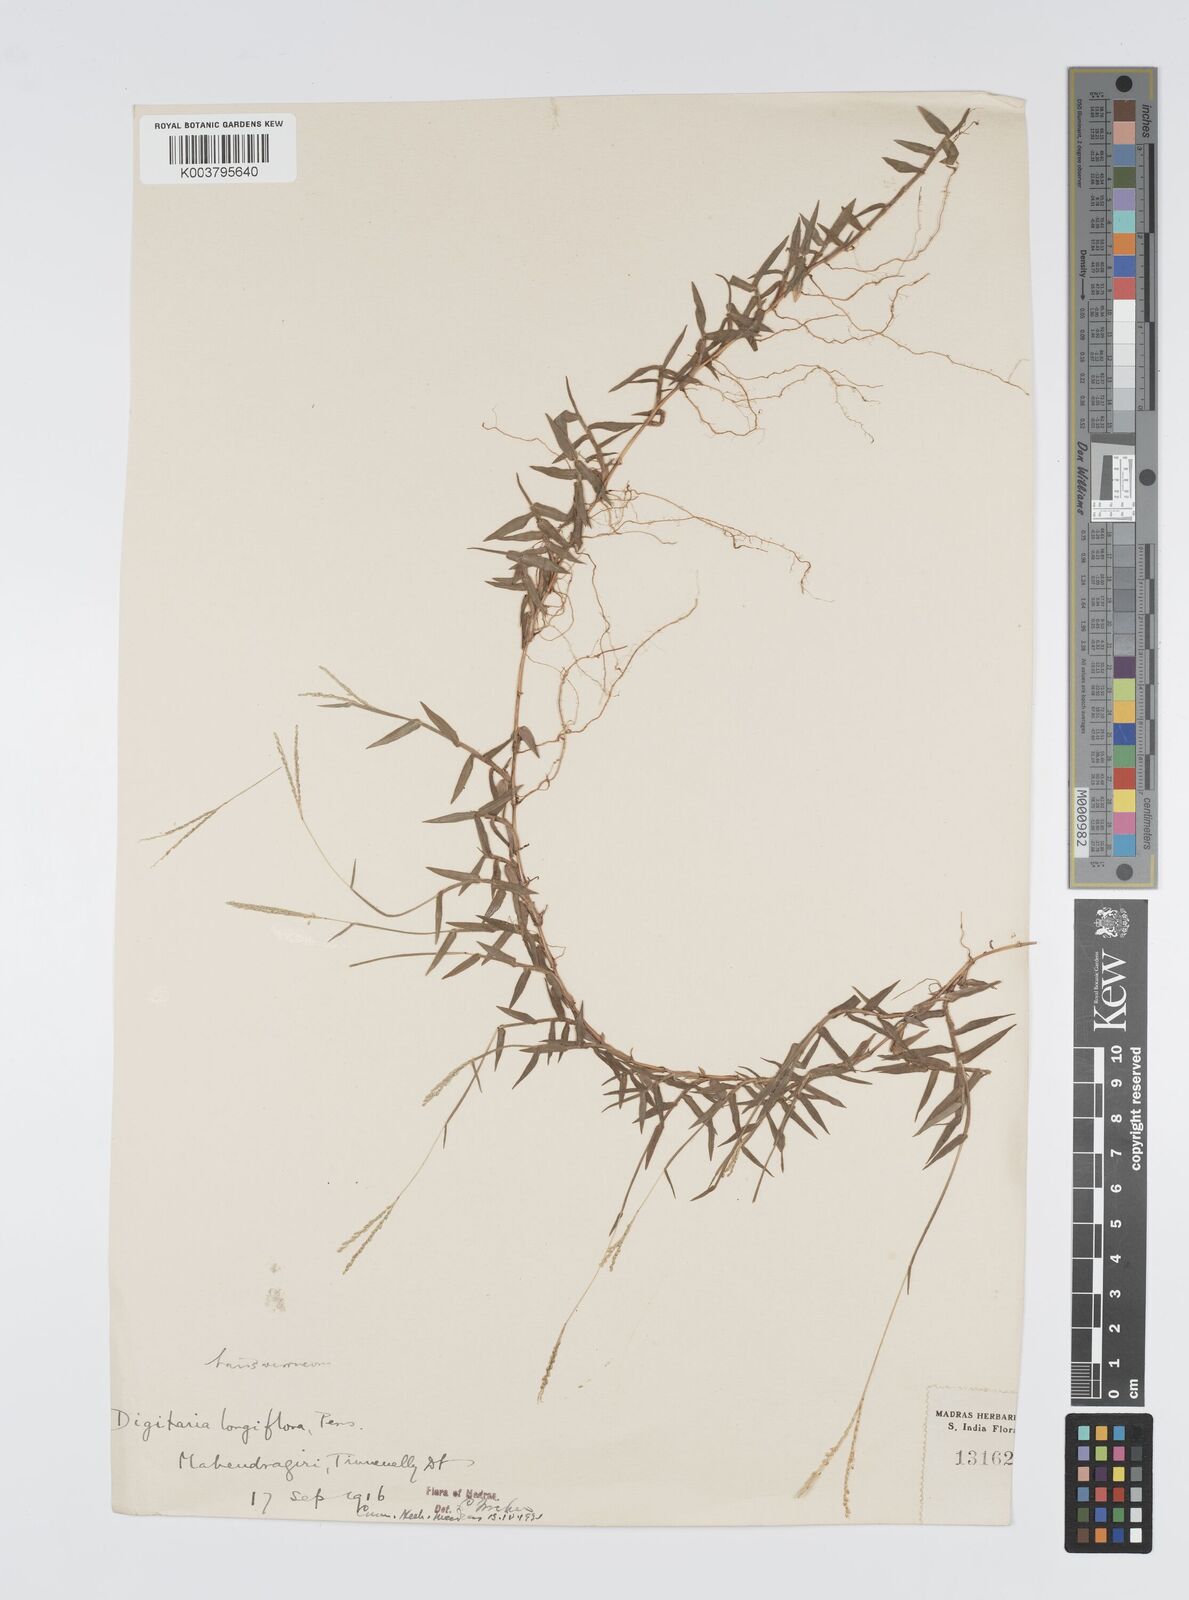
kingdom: Plantae
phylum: Tracheophyta
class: Liliopsida
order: Poales
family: Poaceae
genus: Digitaria
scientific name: Digitaria longiflora
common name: Wire crabgrass
